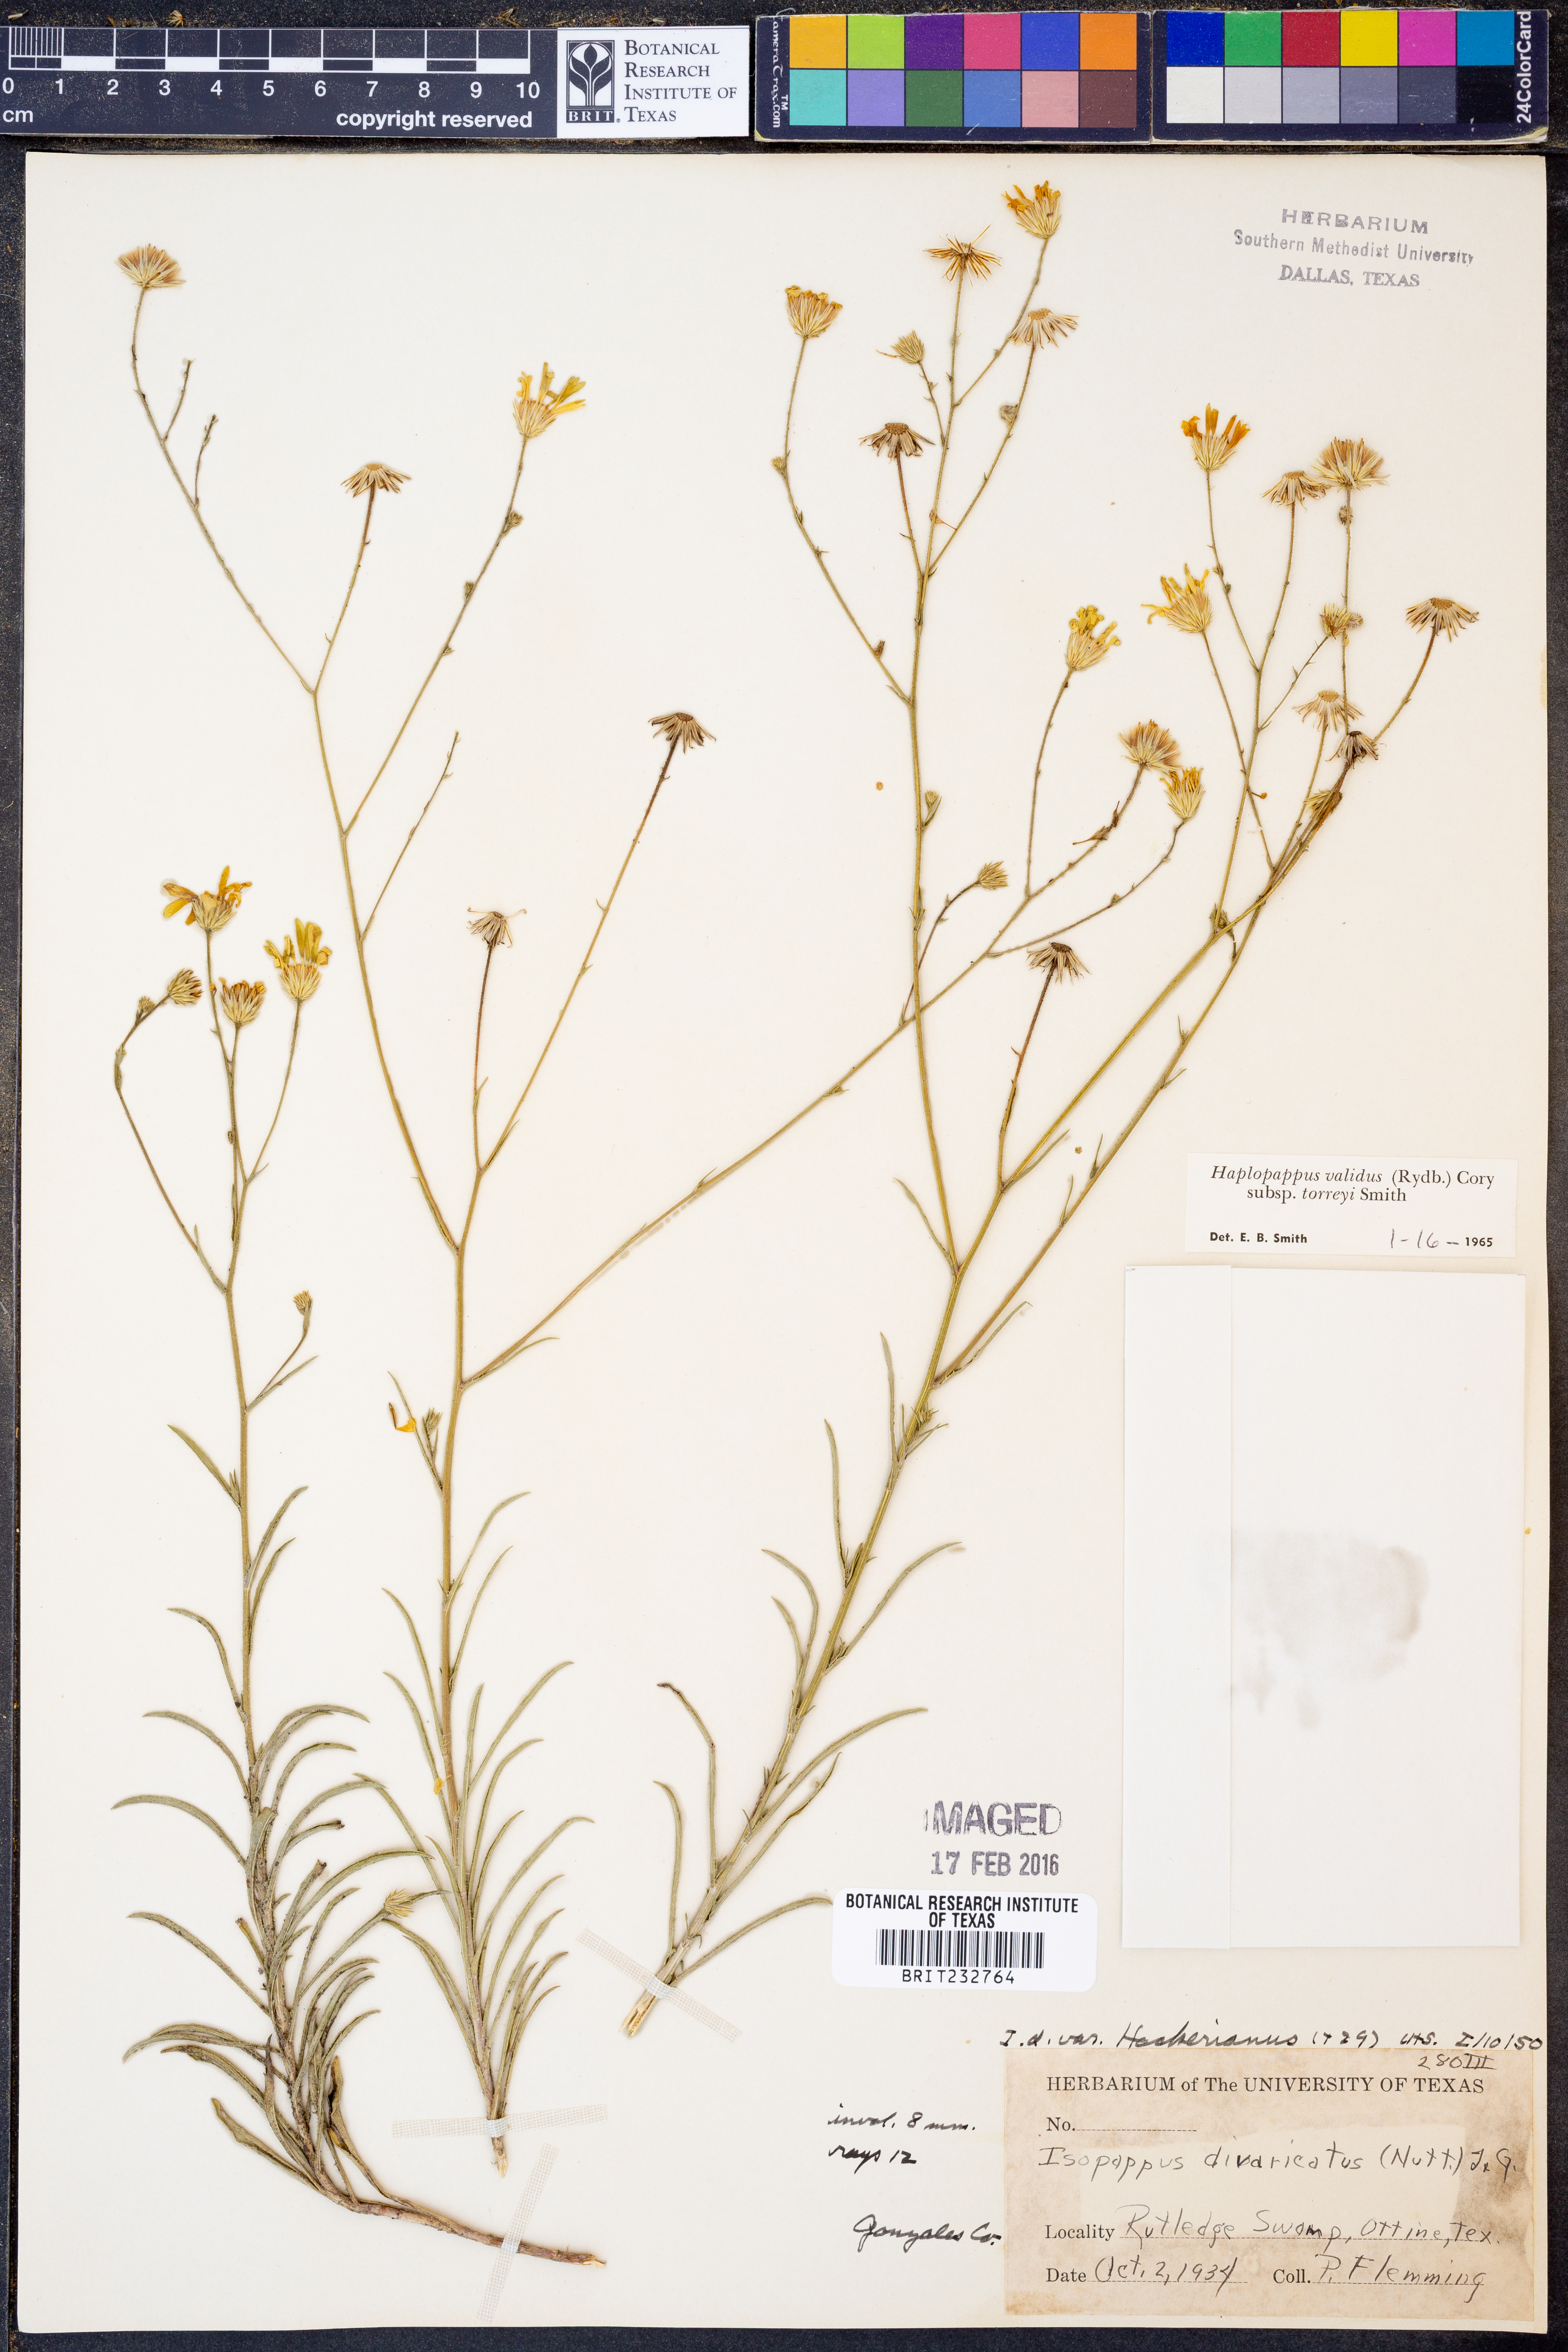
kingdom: Plantae
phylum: Tracheophyta
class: Magnoliopsida
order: Asterales
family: Asteraceae
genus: Croptilon
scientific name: Croptilon hookerianum
